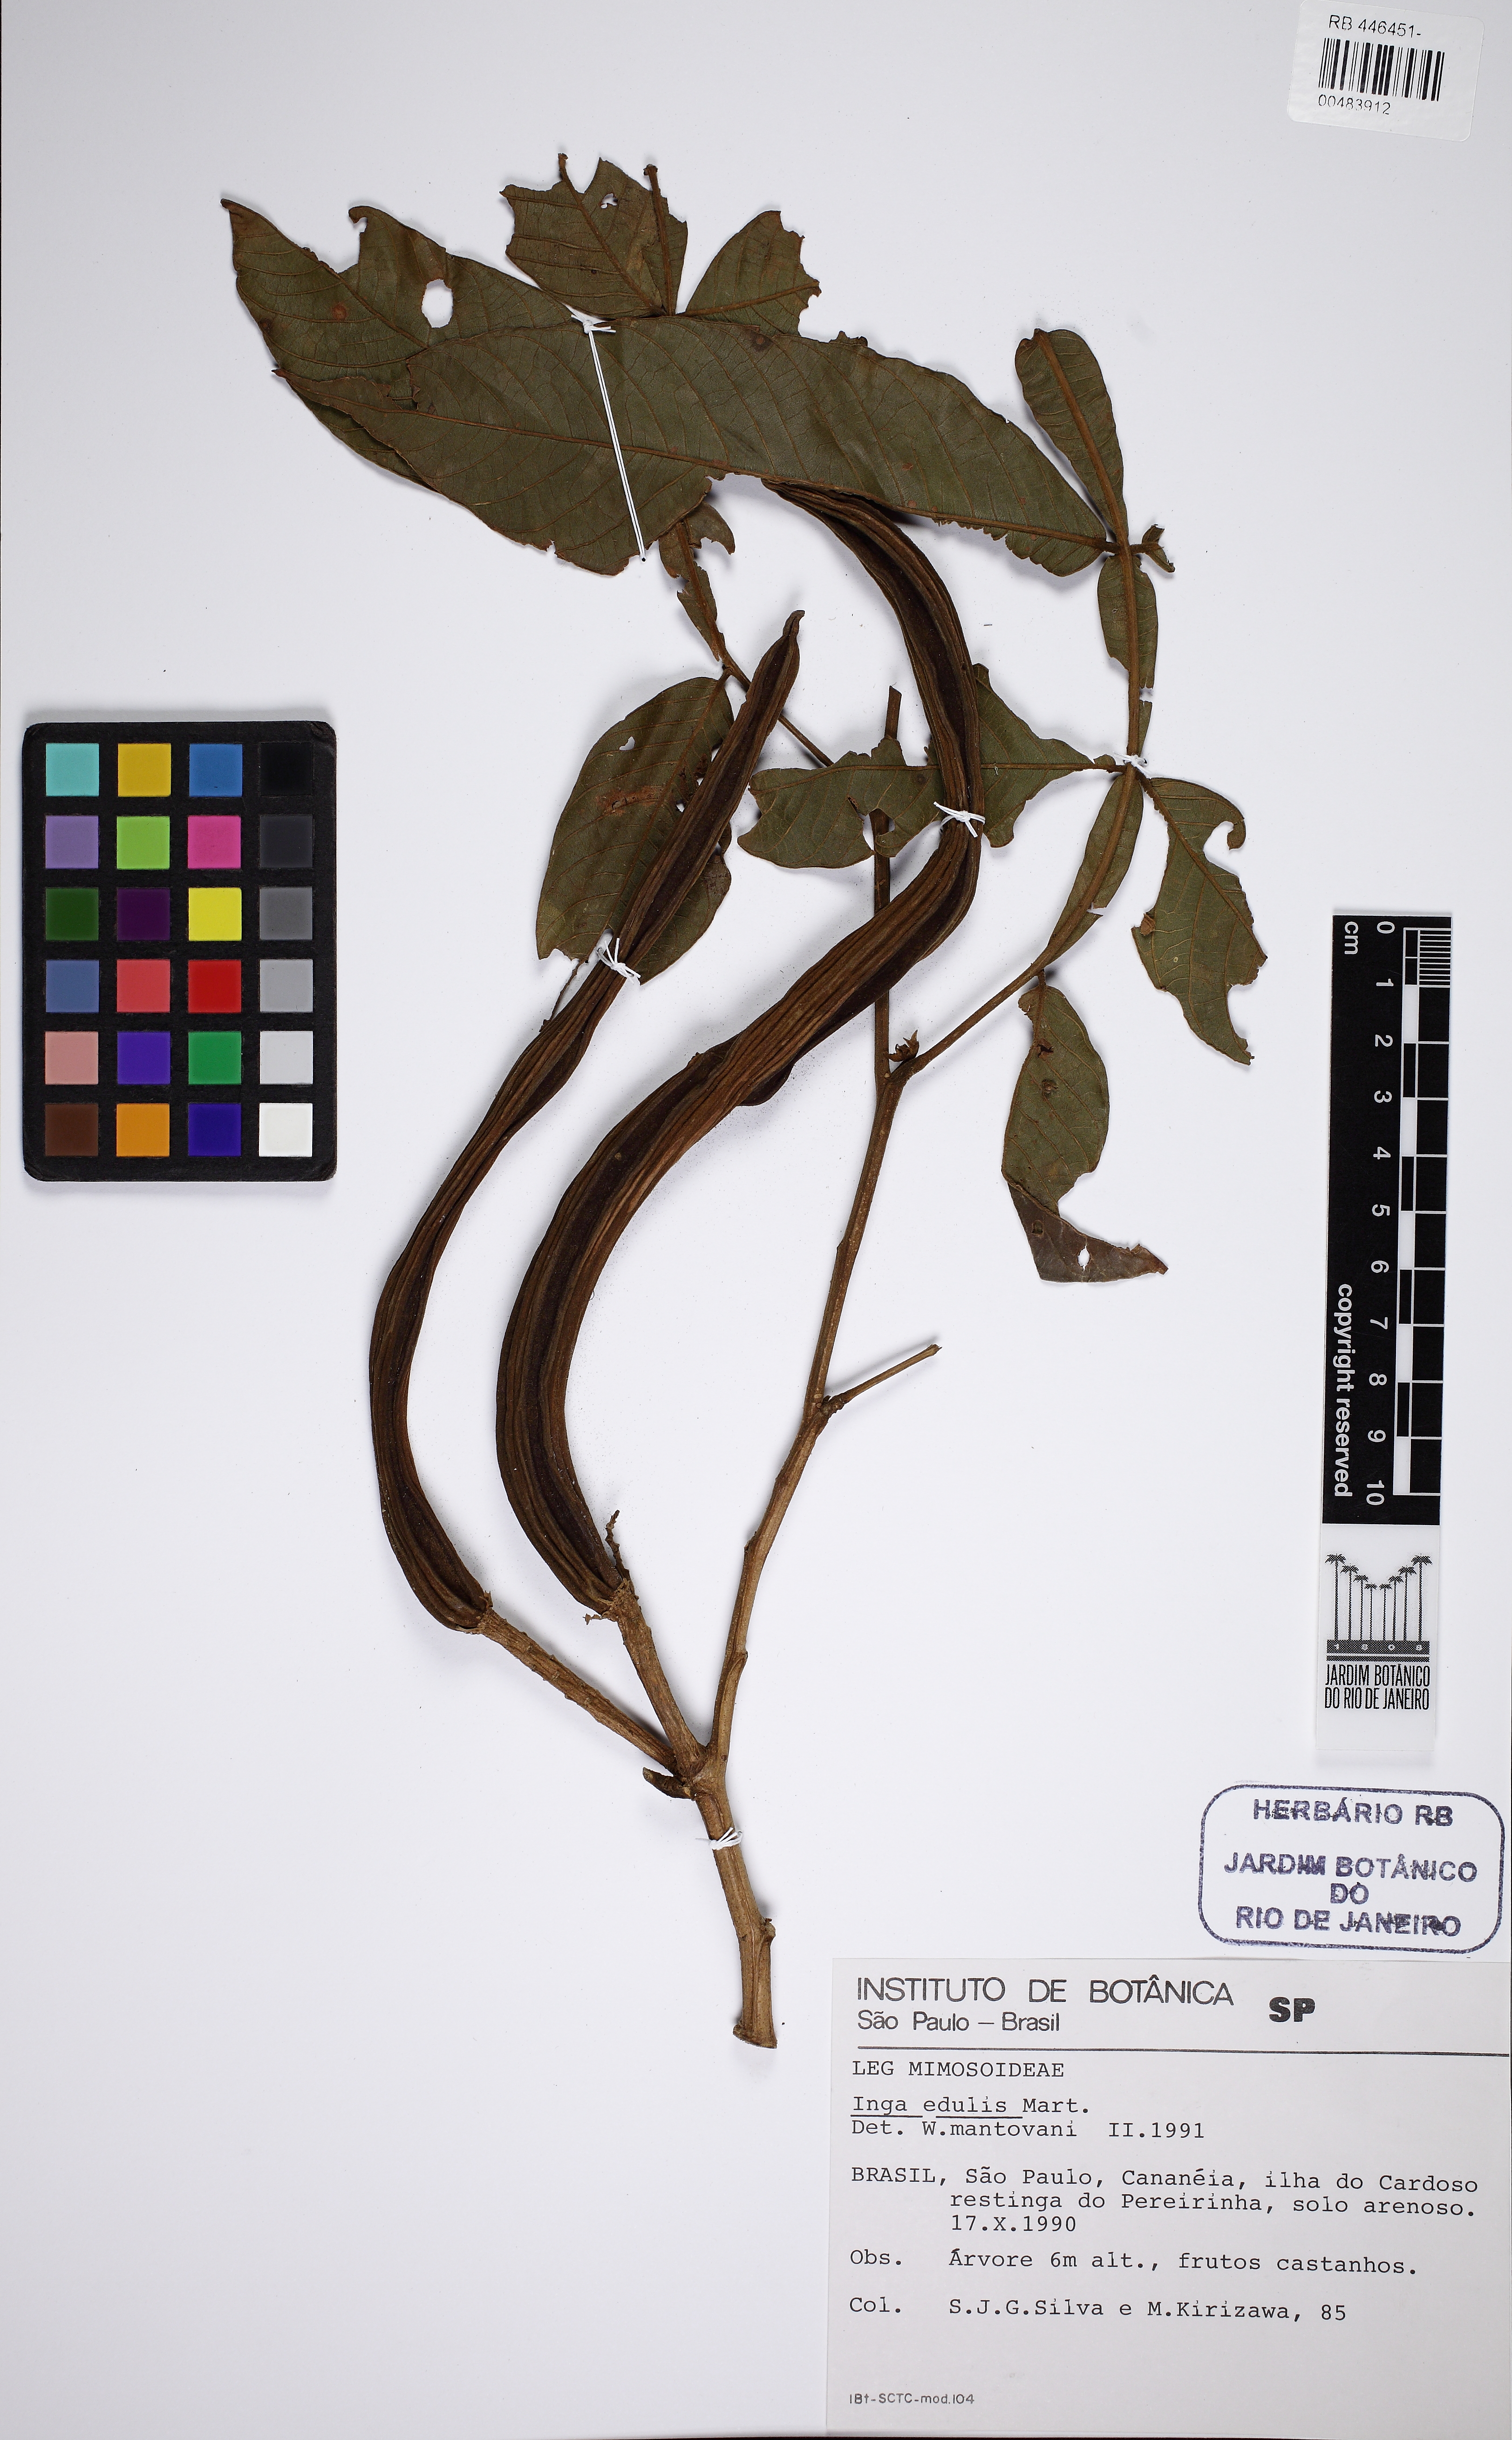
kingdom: Plantae
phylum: Tracheophyta
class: Magnoliopsida
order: Fabales
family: Fabaceae
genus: Inga
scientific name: Inga edulis
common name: Ice cream bean
